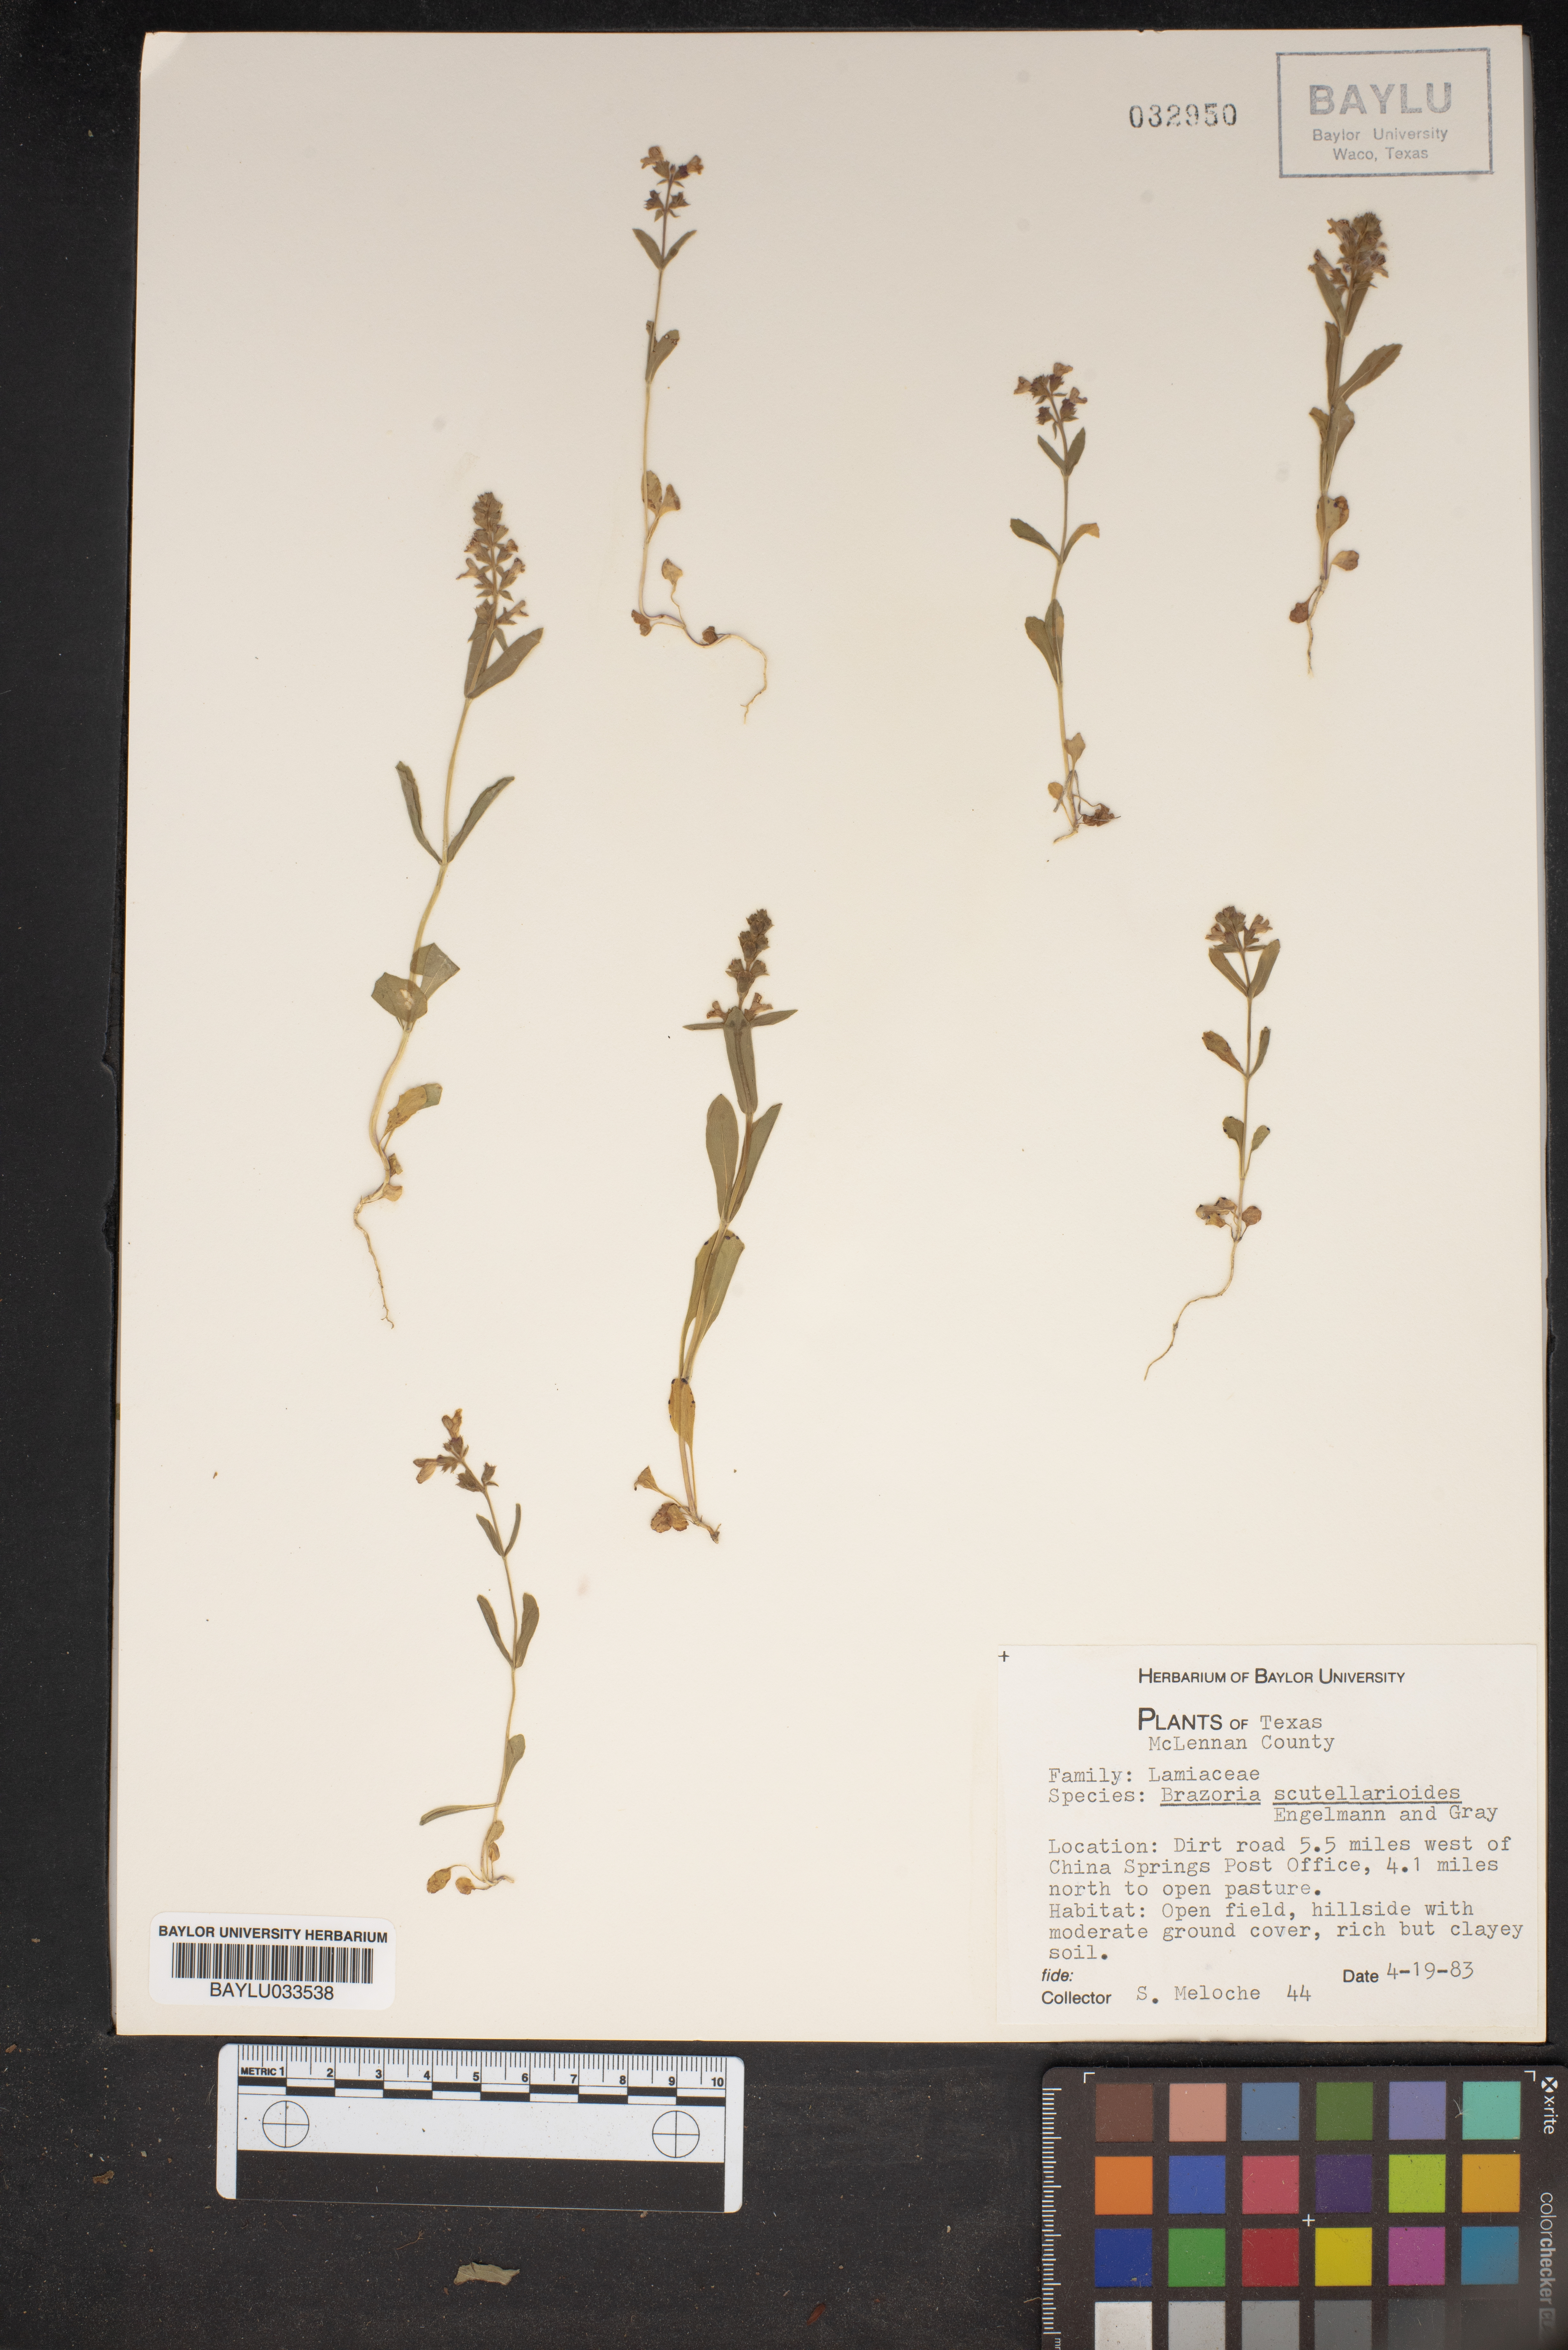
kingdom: Plantae
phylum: Tracheophyta
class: Magnoliopsida
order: Lamiales
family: Lamiaceae
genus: Warnockia
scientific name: Warnockia scutellarioides
